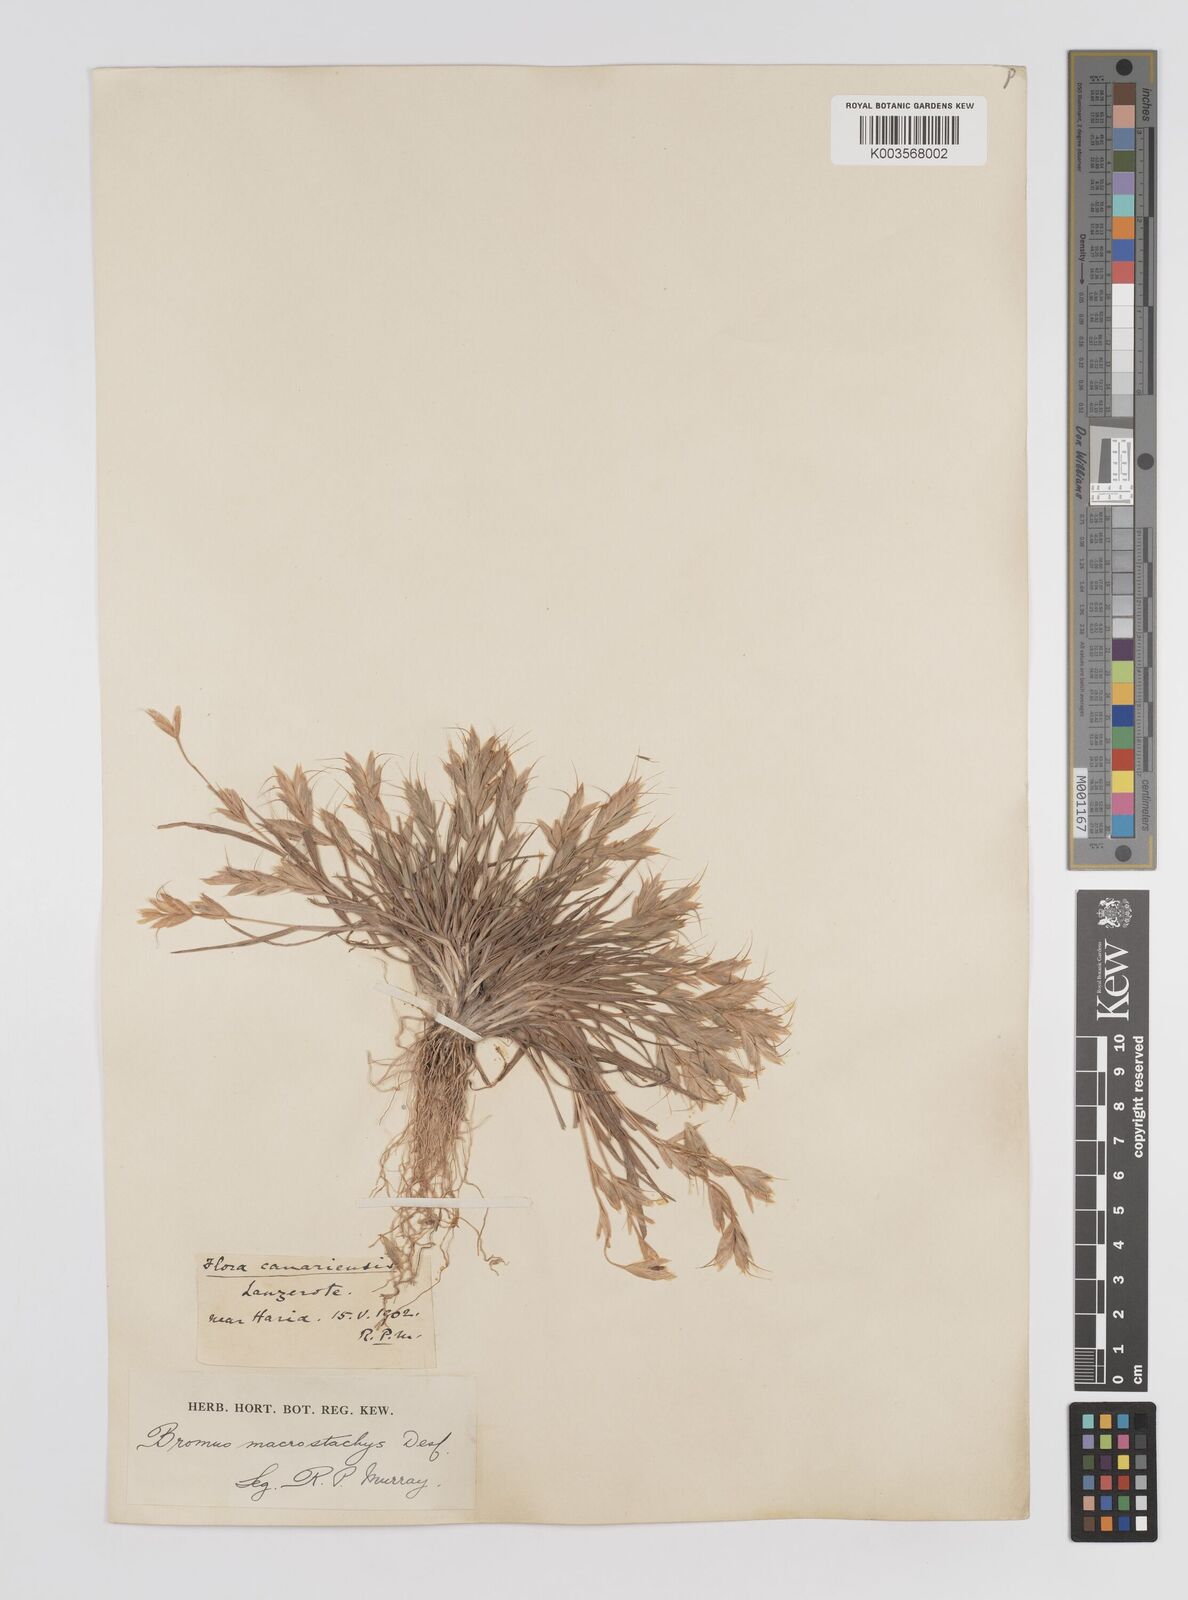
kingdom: Plantae
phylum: Tracheophyta
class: Liliopsida
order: Poales
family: Poaceae
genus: Bromus
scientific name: Bromus lanceolatus
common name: Mediterranean brome
